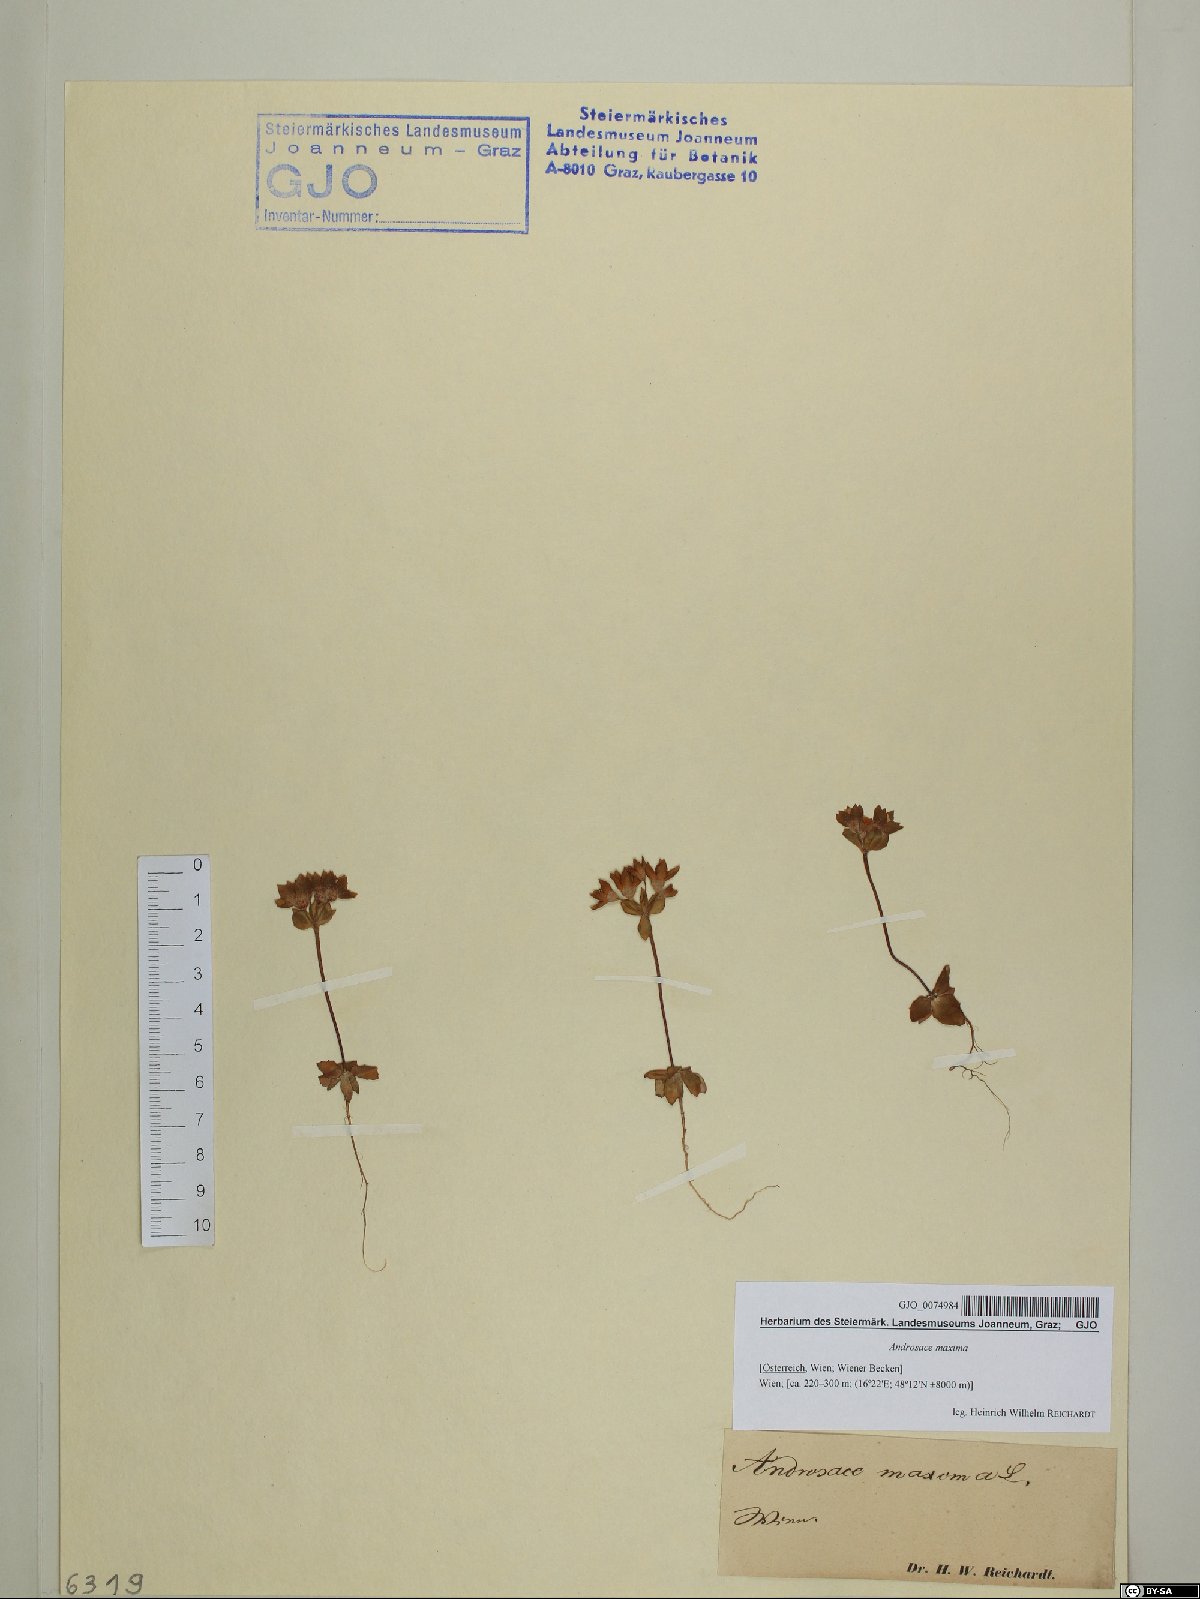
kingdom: Plantae
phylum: Tracheophyta
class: Magnoliopsida
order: Ericales
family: Primulaceae
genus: Androsace
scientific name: Androsace maxima
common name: Annual androsace
